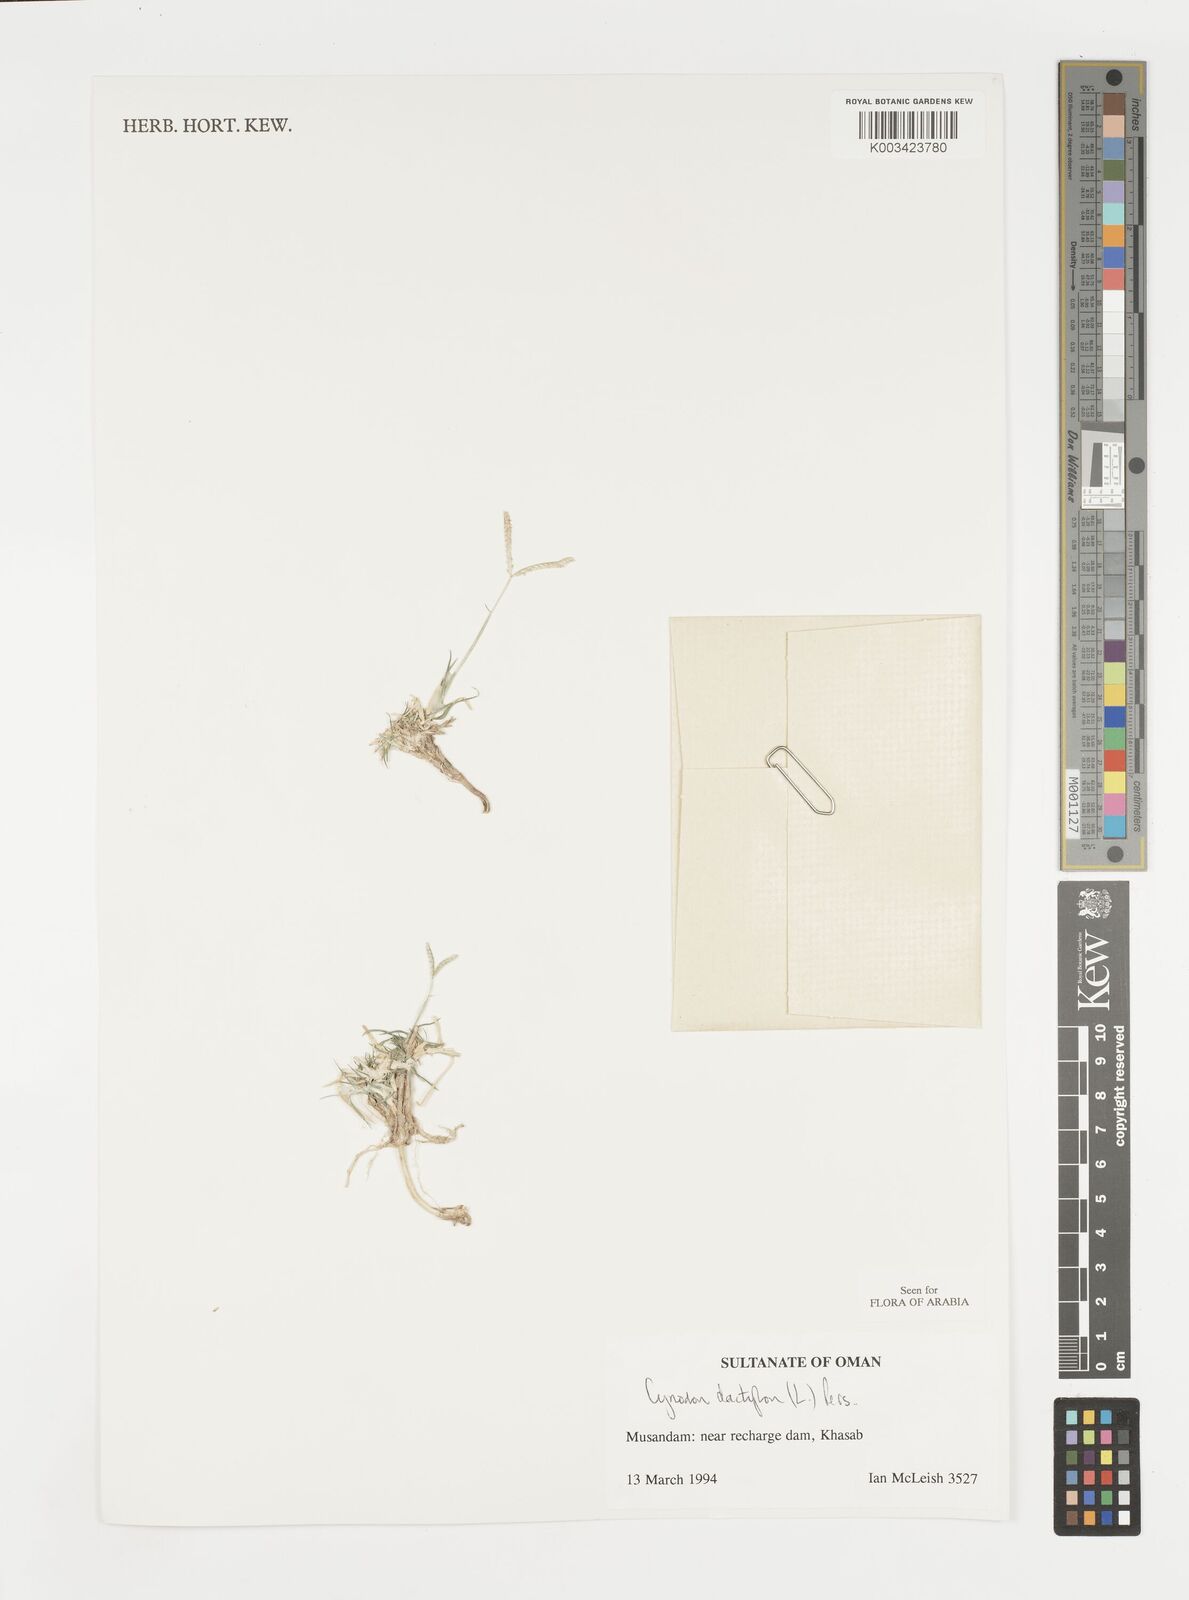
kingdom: Plantae
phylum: Tracheophyta
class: Liliopsida
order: Poales
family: Poaceae
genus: Cynodon
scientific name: Cynodon dactylon
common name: Bermuda grass
